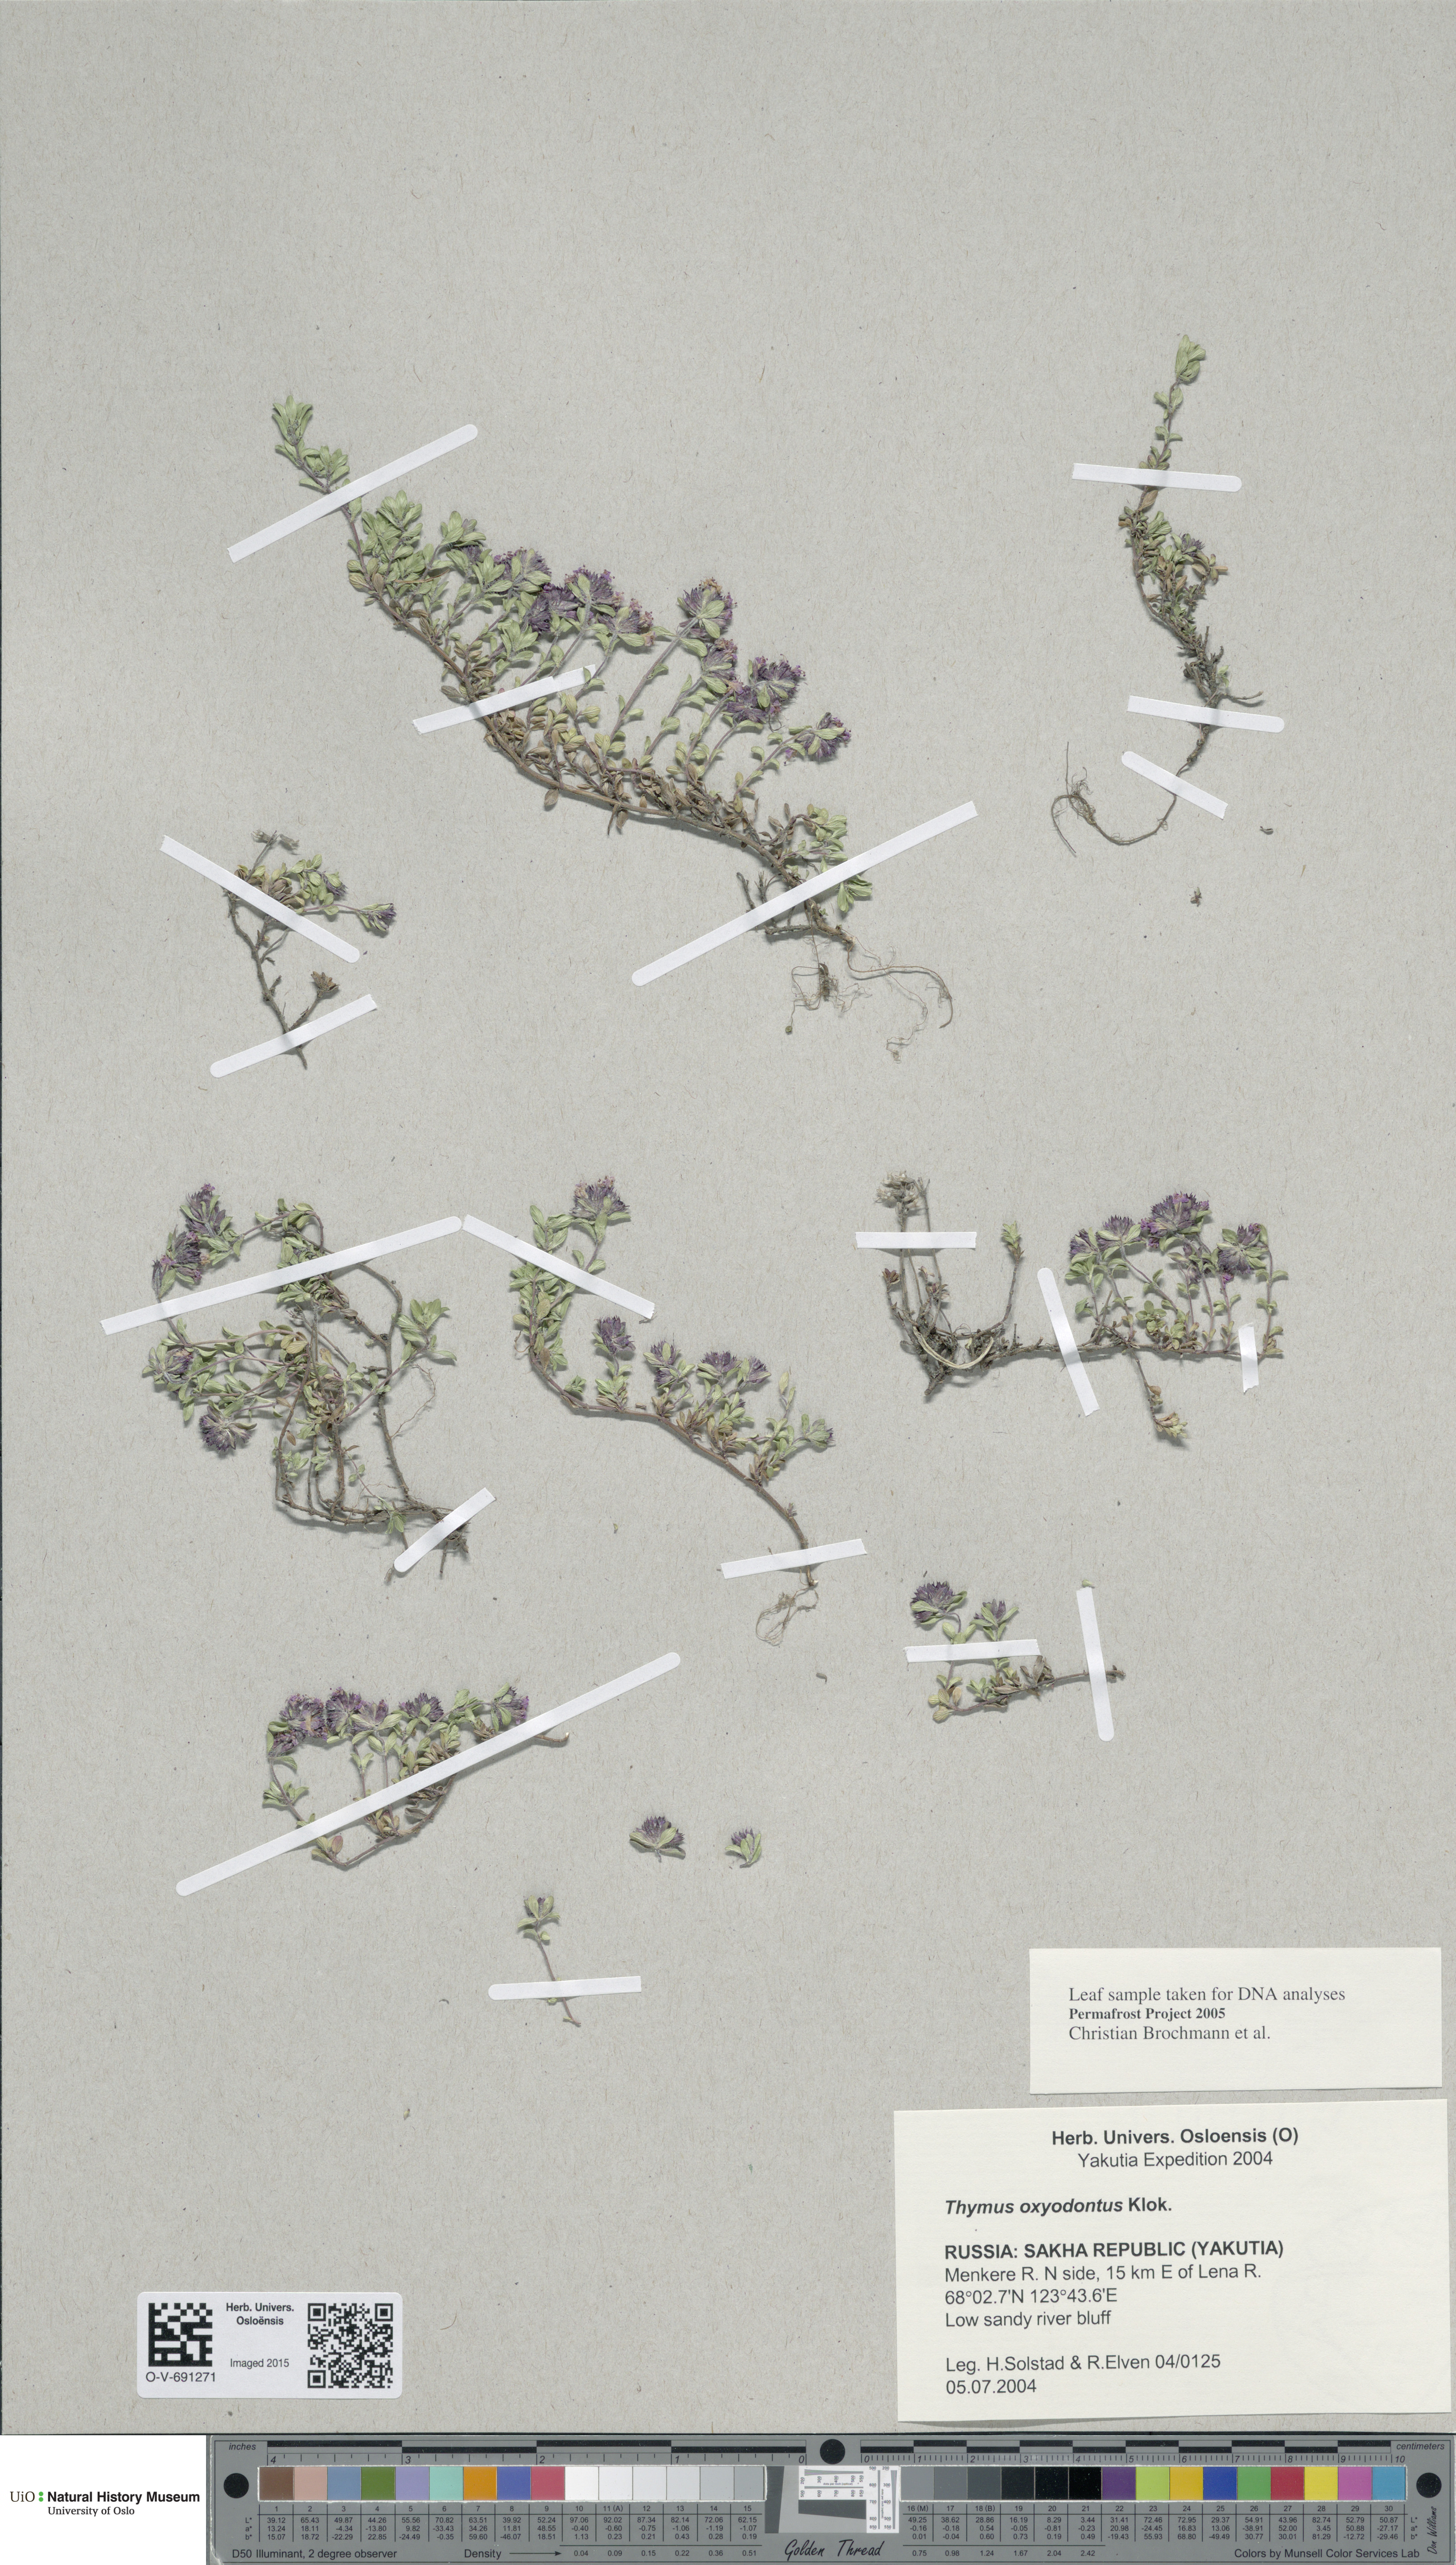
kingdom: Plantae
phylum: Tracheophyta
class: Magnoliopsida
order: Lamiales
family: Lamiaceae
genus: Thymus
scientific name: Thymus oxyodontus
